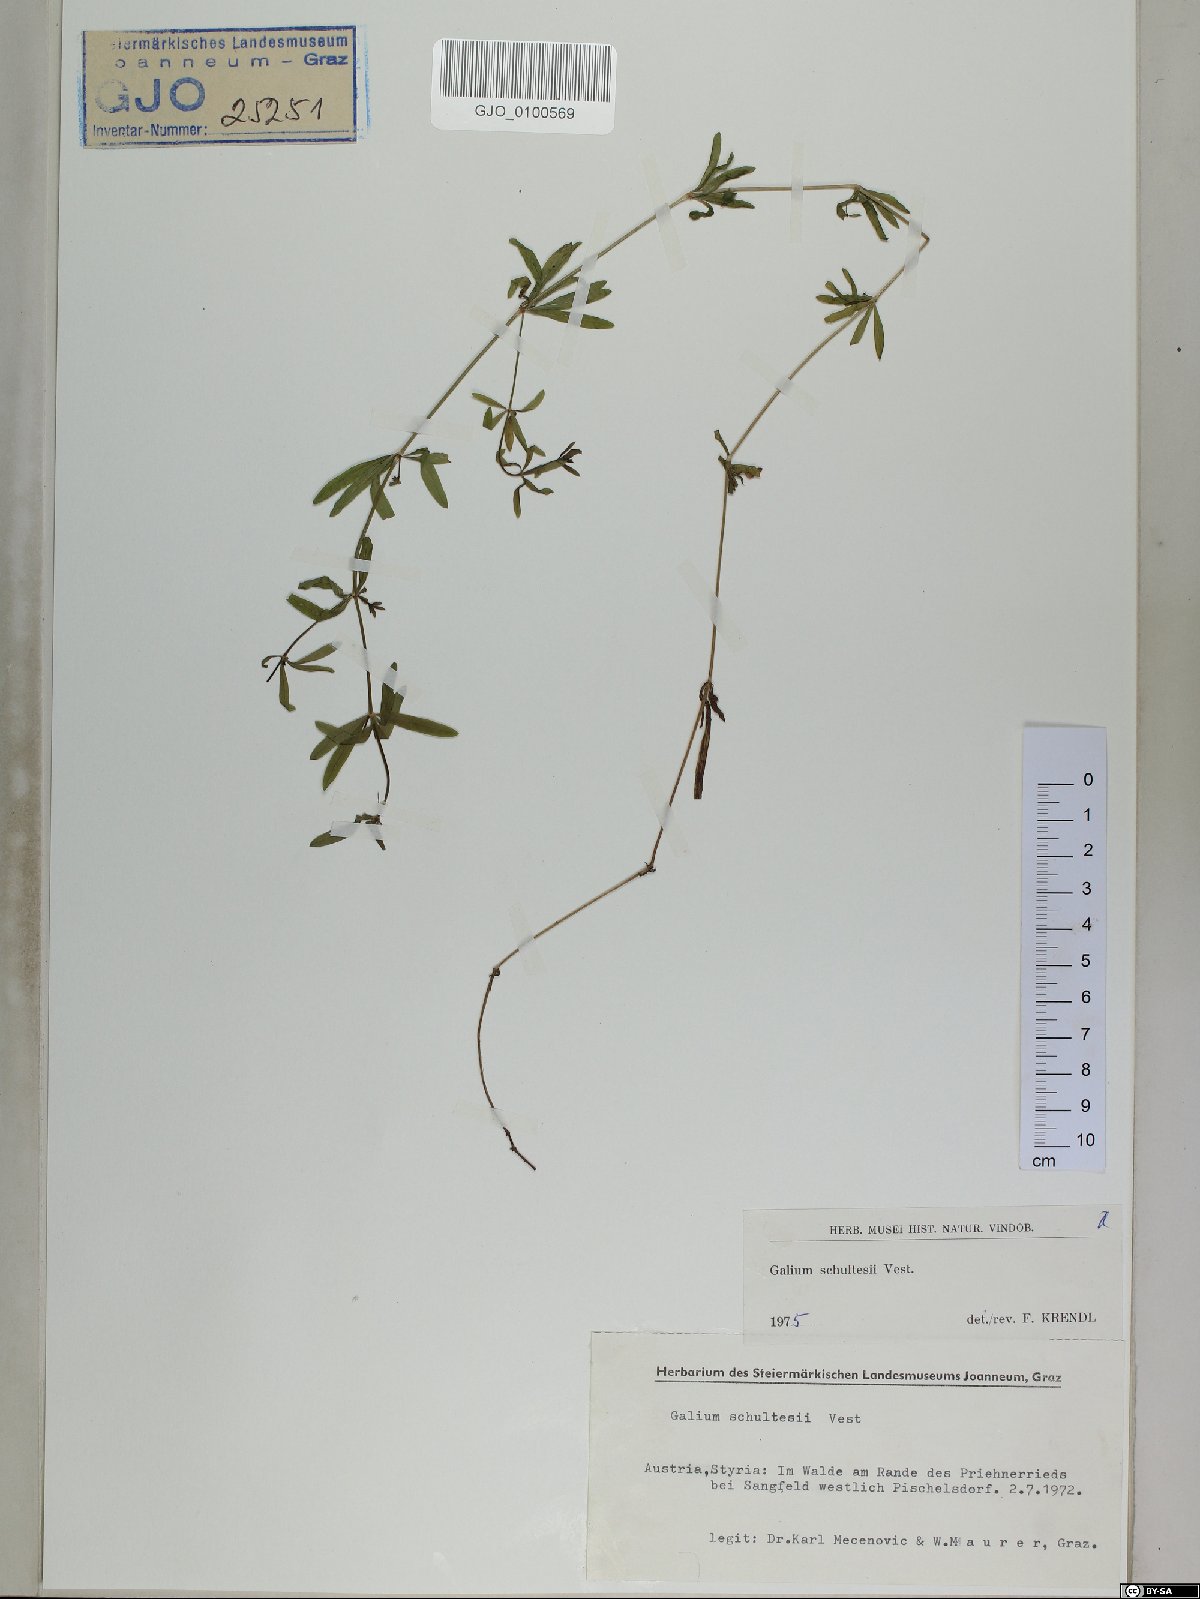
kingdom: Plantae
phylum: Tracheophyta
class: Magnoliopsida
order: Gentianales
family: Rubiaceae
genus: Galium
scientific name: Galium intermedium
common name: Bedstraw
